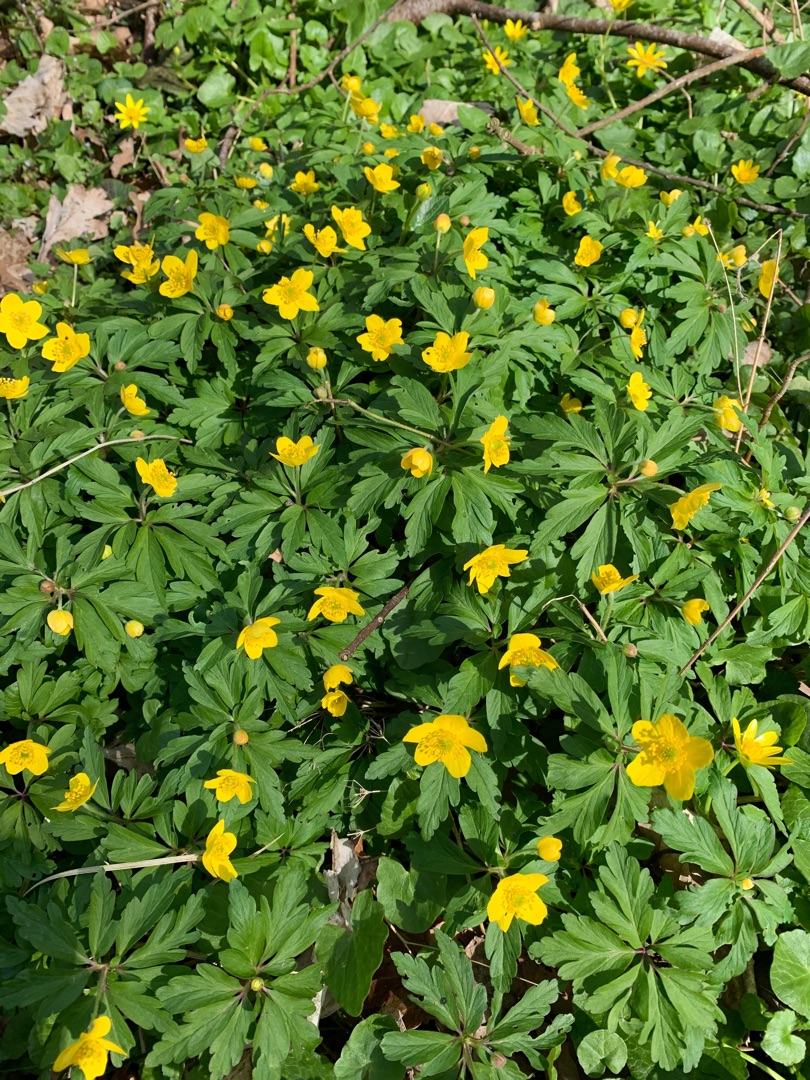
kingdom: Plantae
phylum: Tracheophyta
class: Magnoliopsida
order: Ranunculales
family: Ranunculaceae
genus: Anemone
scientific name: Anemone ranunculoides
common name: Gul anemone
